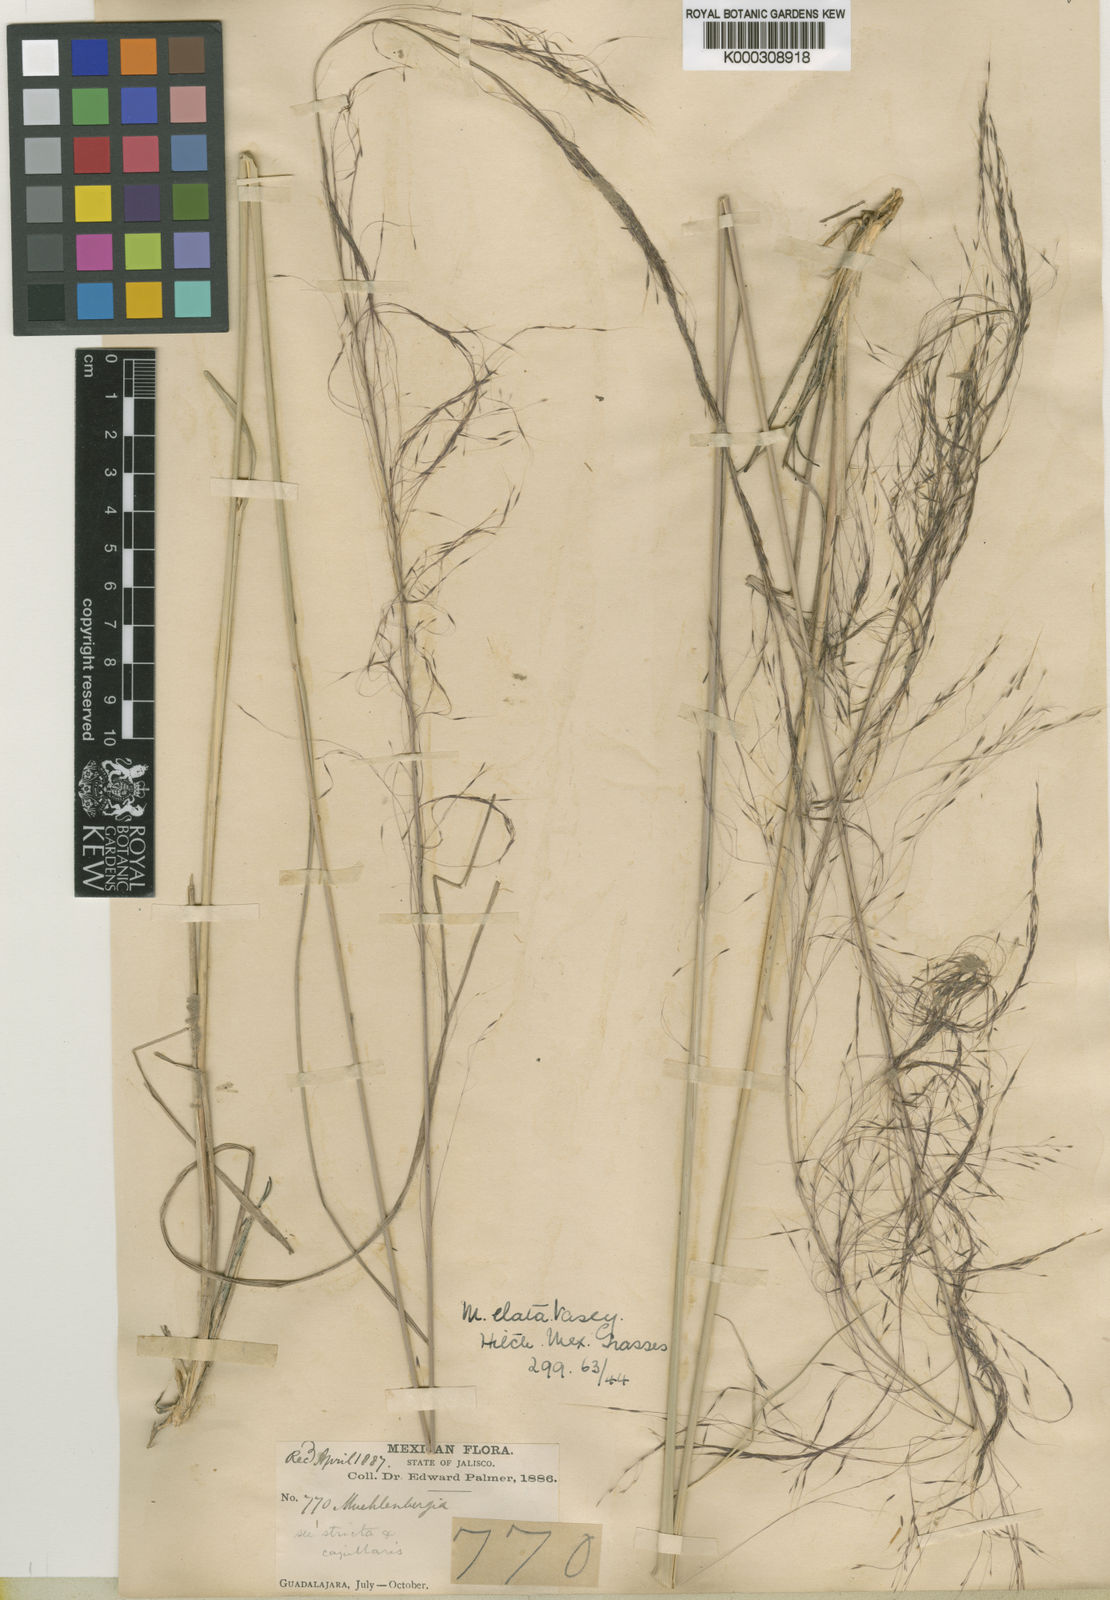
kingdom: Plantae
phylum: Tracheophyta
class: Liliopsida
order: Poales
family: Poaceae
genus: Muhlenbergia
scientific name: Muhlenbergia stricta
